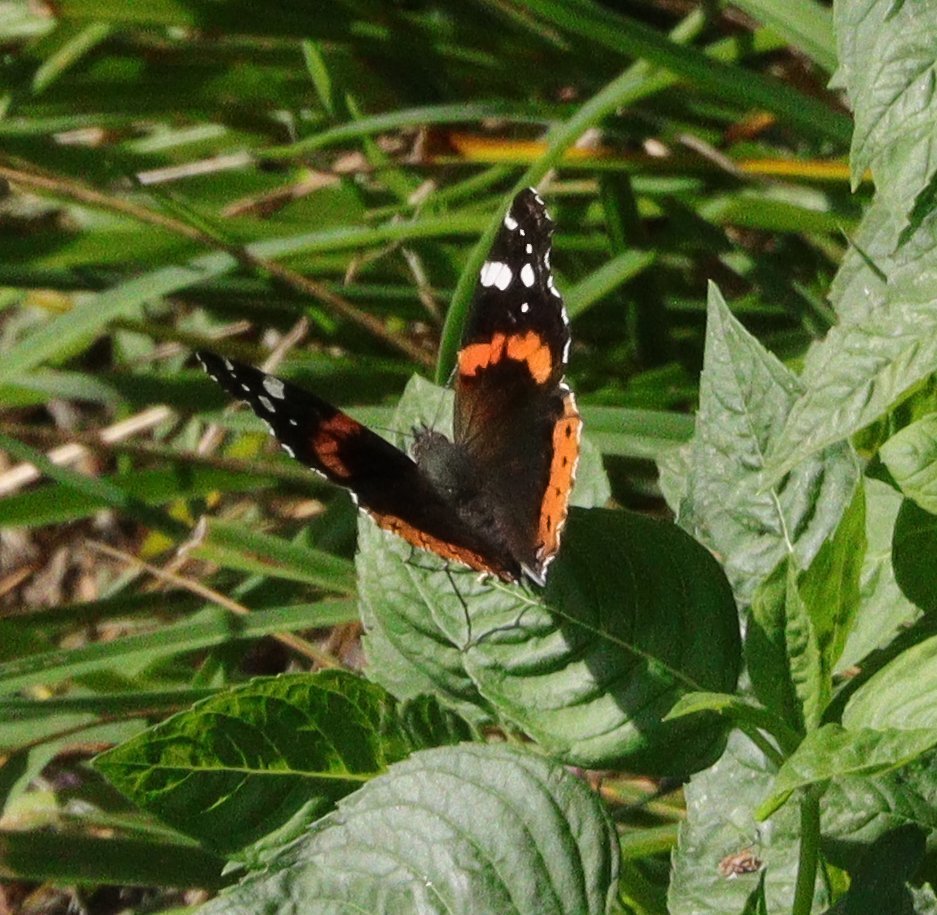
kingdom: Animalia
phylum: Arthropoda
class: Insecta
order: Lepidoptera
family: Nymphalidae
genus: Vanessa
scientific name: Vanessa atalanta
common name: Red Admiral
